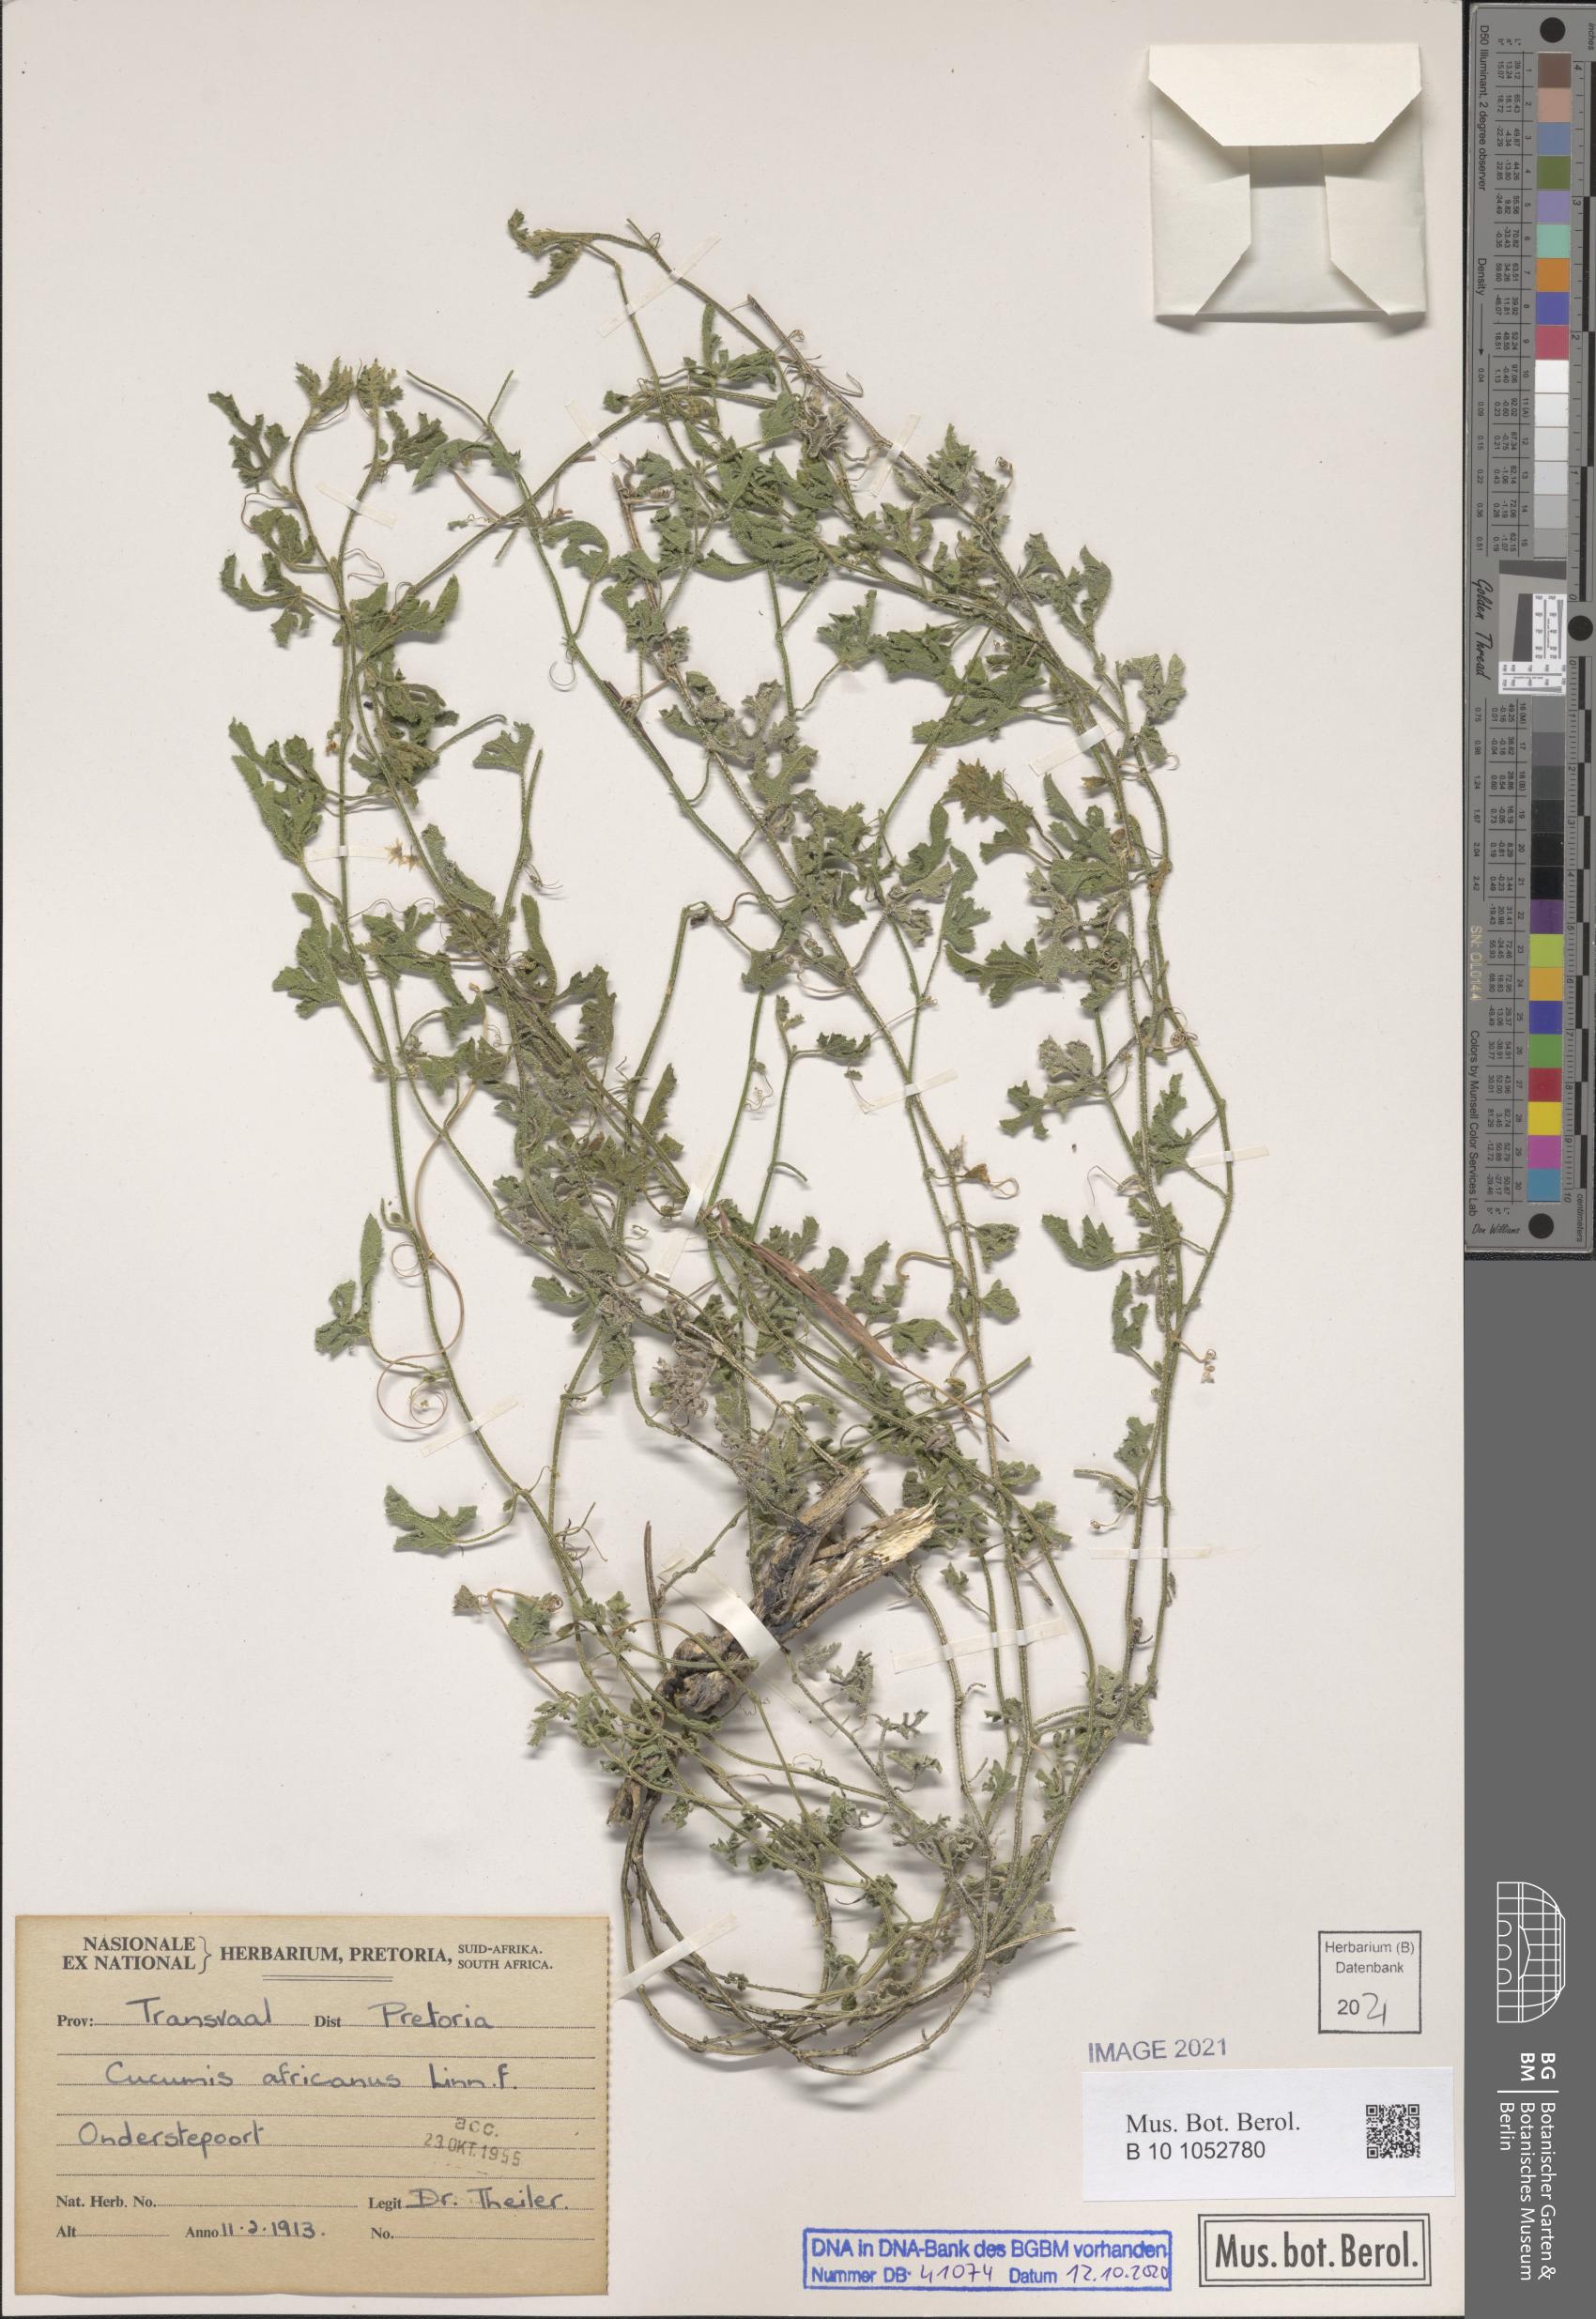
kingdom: Plantae
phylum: Tracheophyta
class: Magnoliopsida
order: Cucurbitales
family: Cucurbitaceae
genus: Cucumis
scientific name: Cucumis africanus
